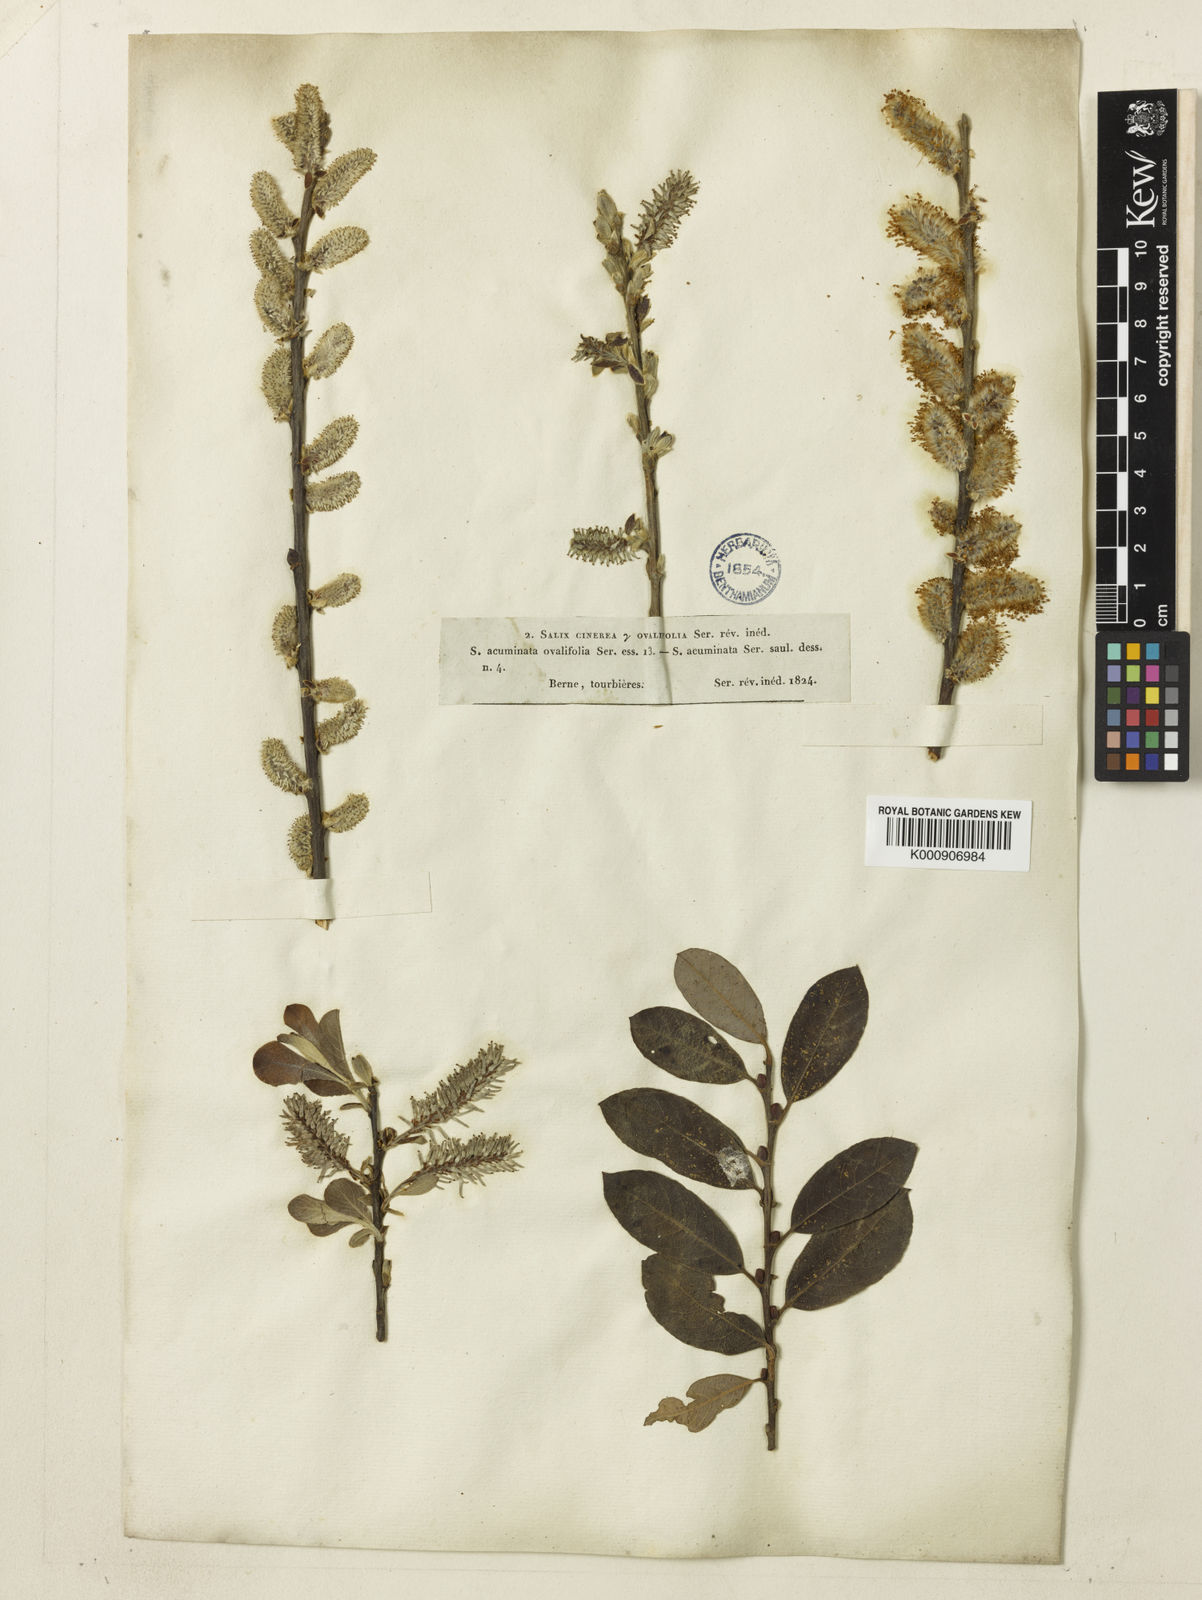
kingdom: Plantae
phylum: Tracheophyta
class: Magnoliopsida
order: Malpighiales
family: Salicaceae
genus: Salix
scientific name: Salix cinerea
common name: Common sallow
